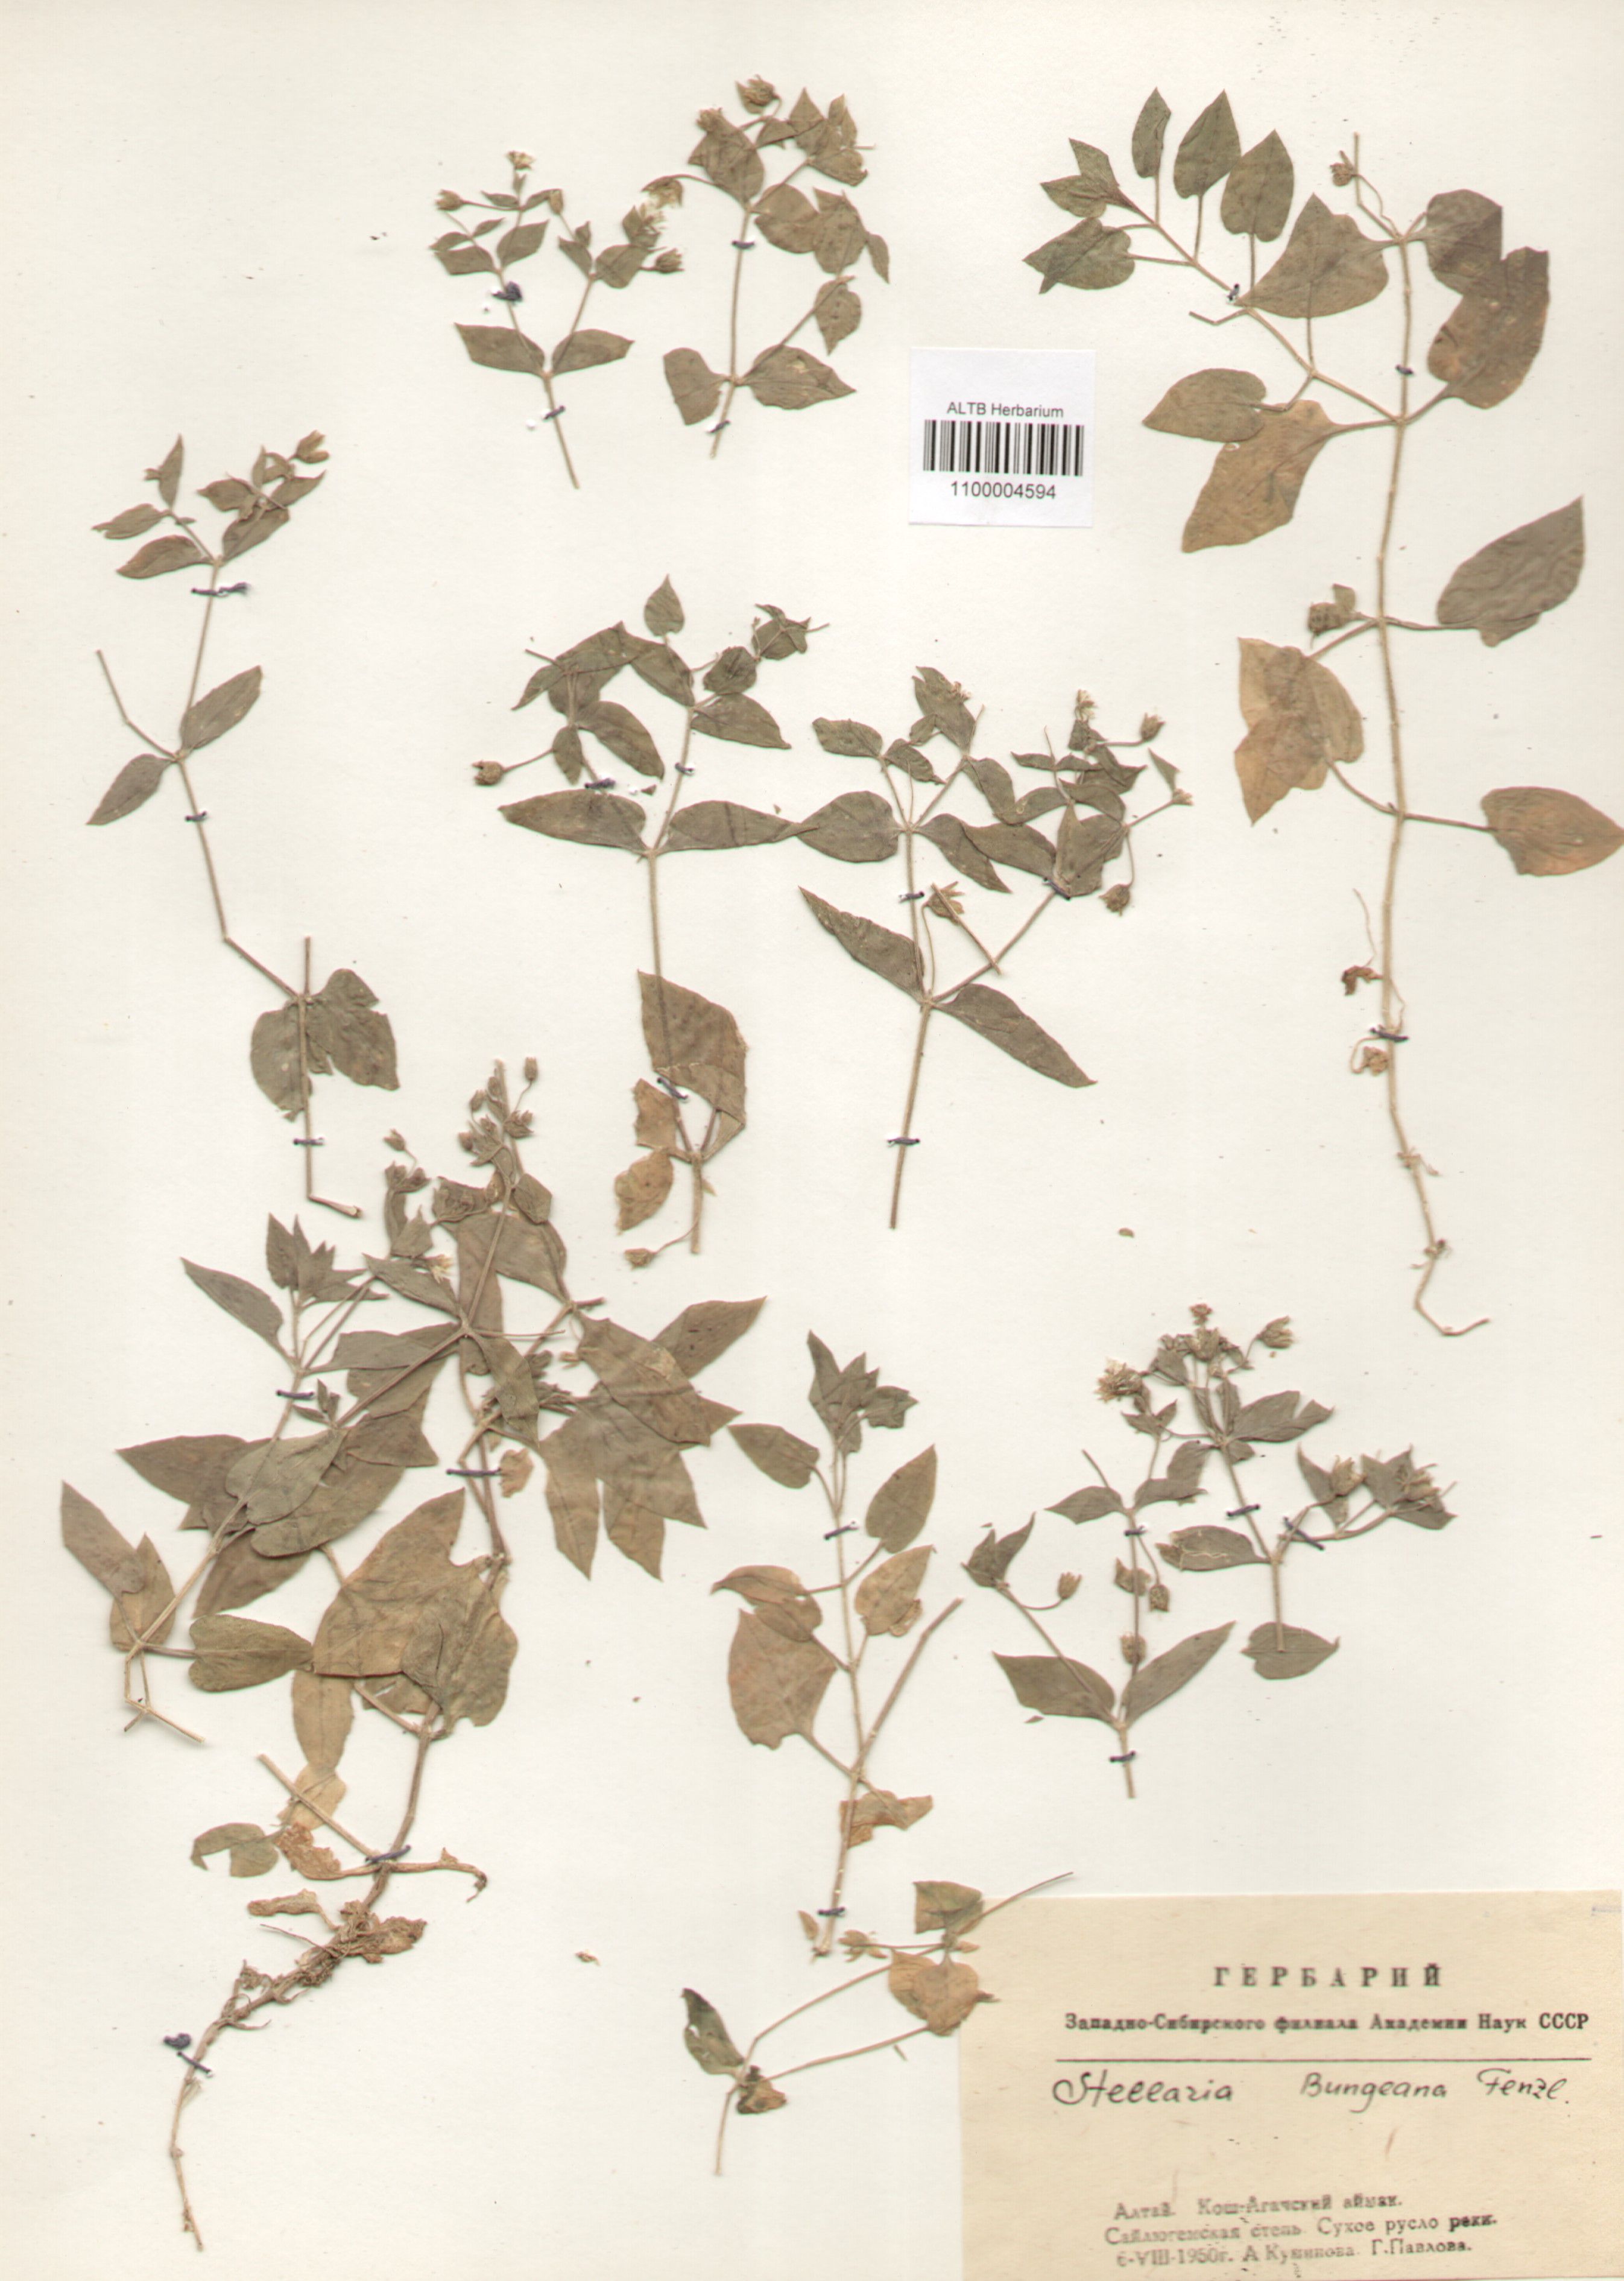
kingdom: Plantae
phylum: Tracheophyta
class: Magnoliopsida
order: Caryophyllales
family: Caryophyllaceae
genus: Stellaria
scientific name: Stellaria bungeana
